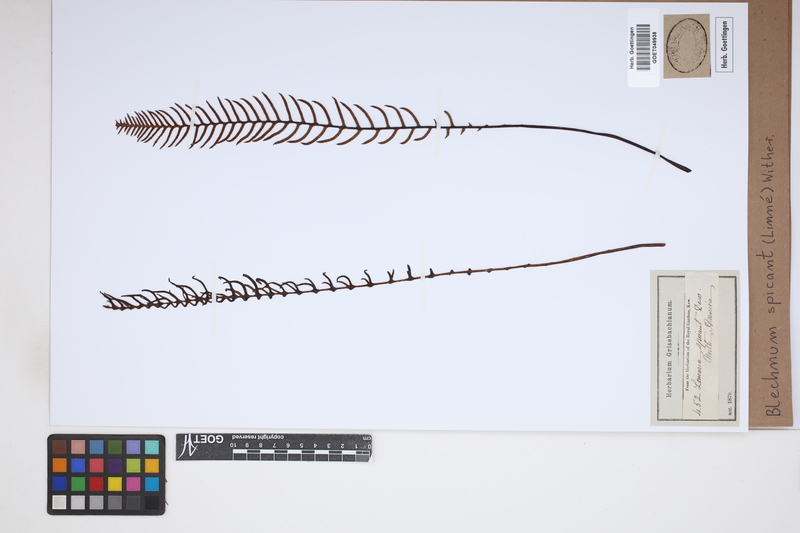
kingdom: Plantae
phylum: Tracheophyta
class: Polypodiopsida
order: Polypodiales
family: Blechnaceae
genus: Struthiopteris
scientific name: Struthiopteris spicant
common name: Deer fern
